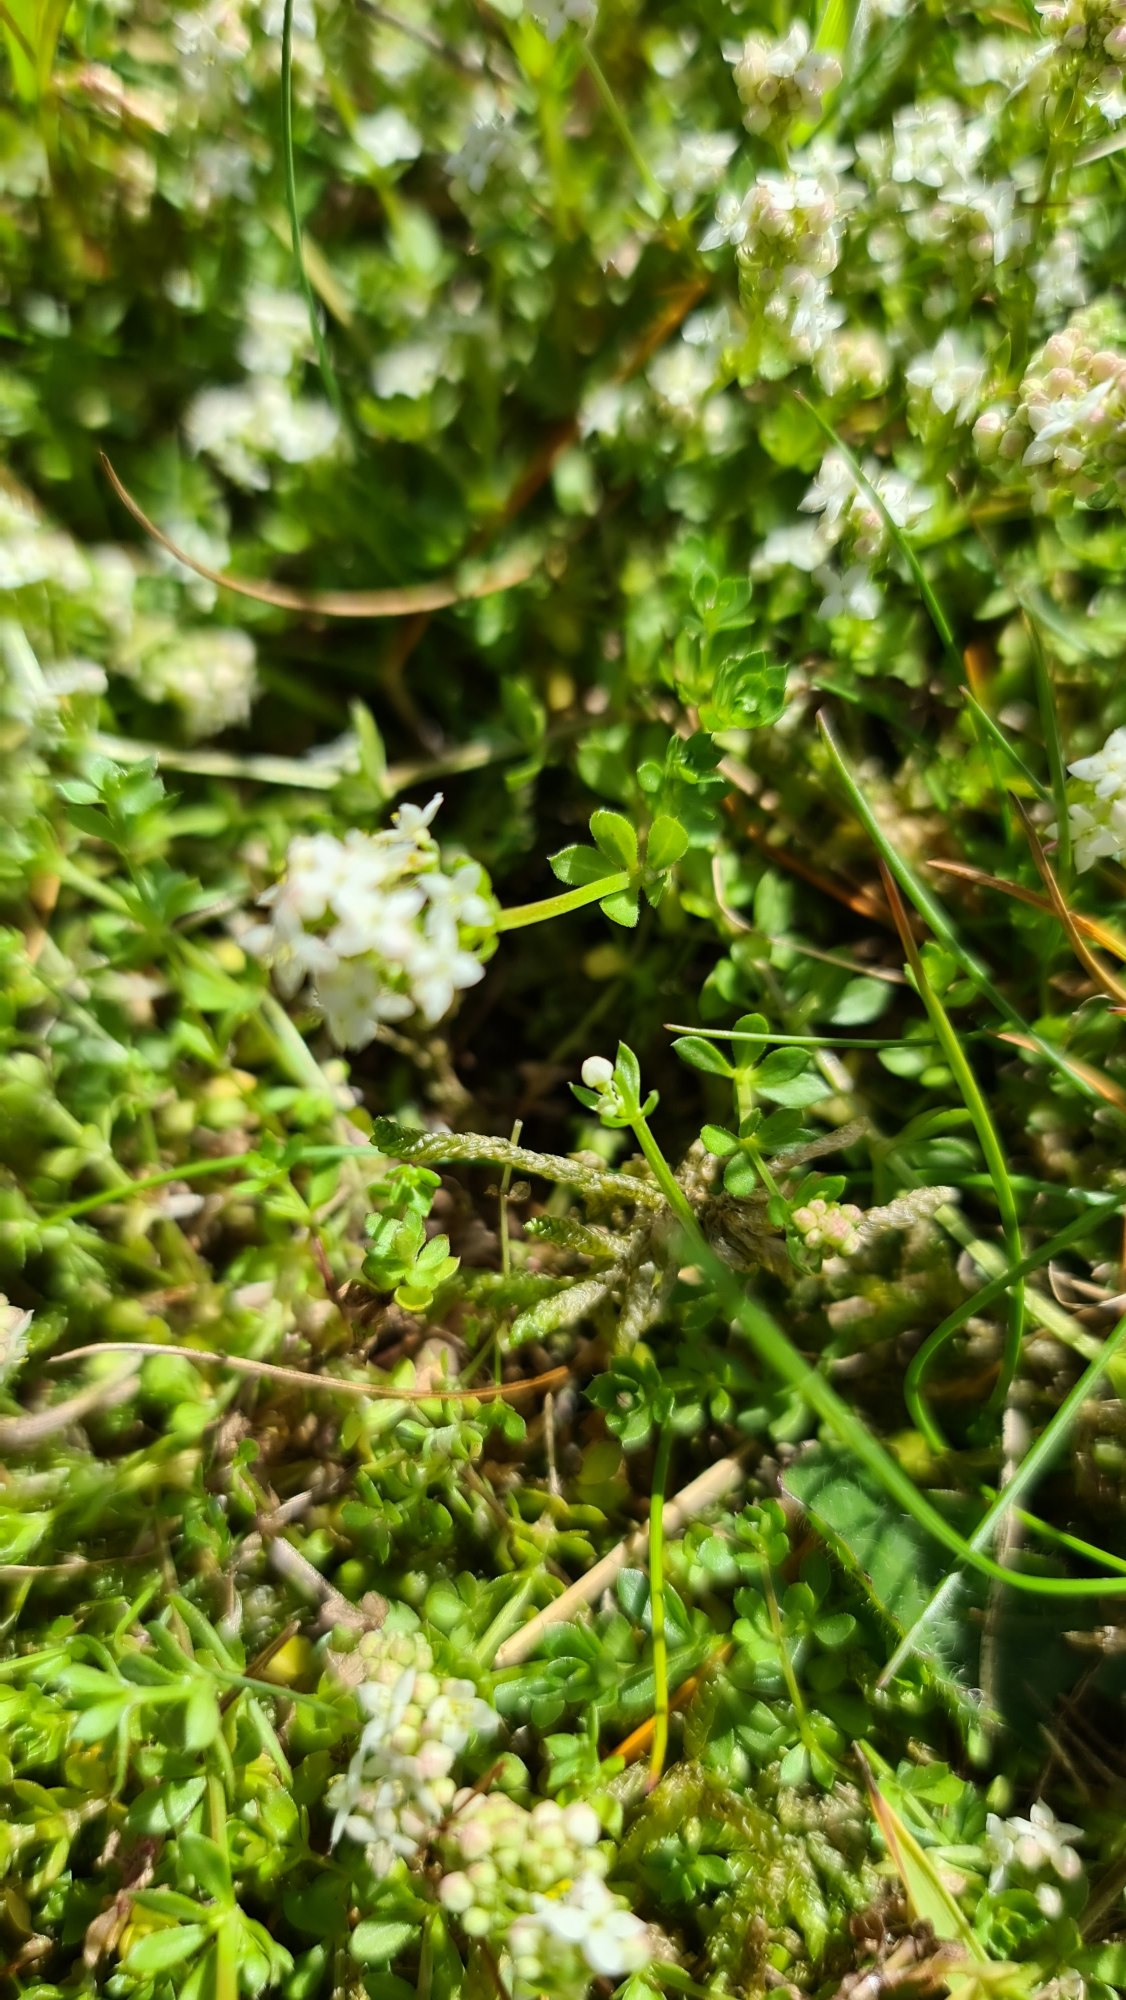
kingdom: Plantae
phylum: Tracheophyta
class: Magnoliopsida
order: Gentianales
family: Rubiaceae
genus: Galium
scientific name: Galium saxatile
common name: Lyng-snerre
